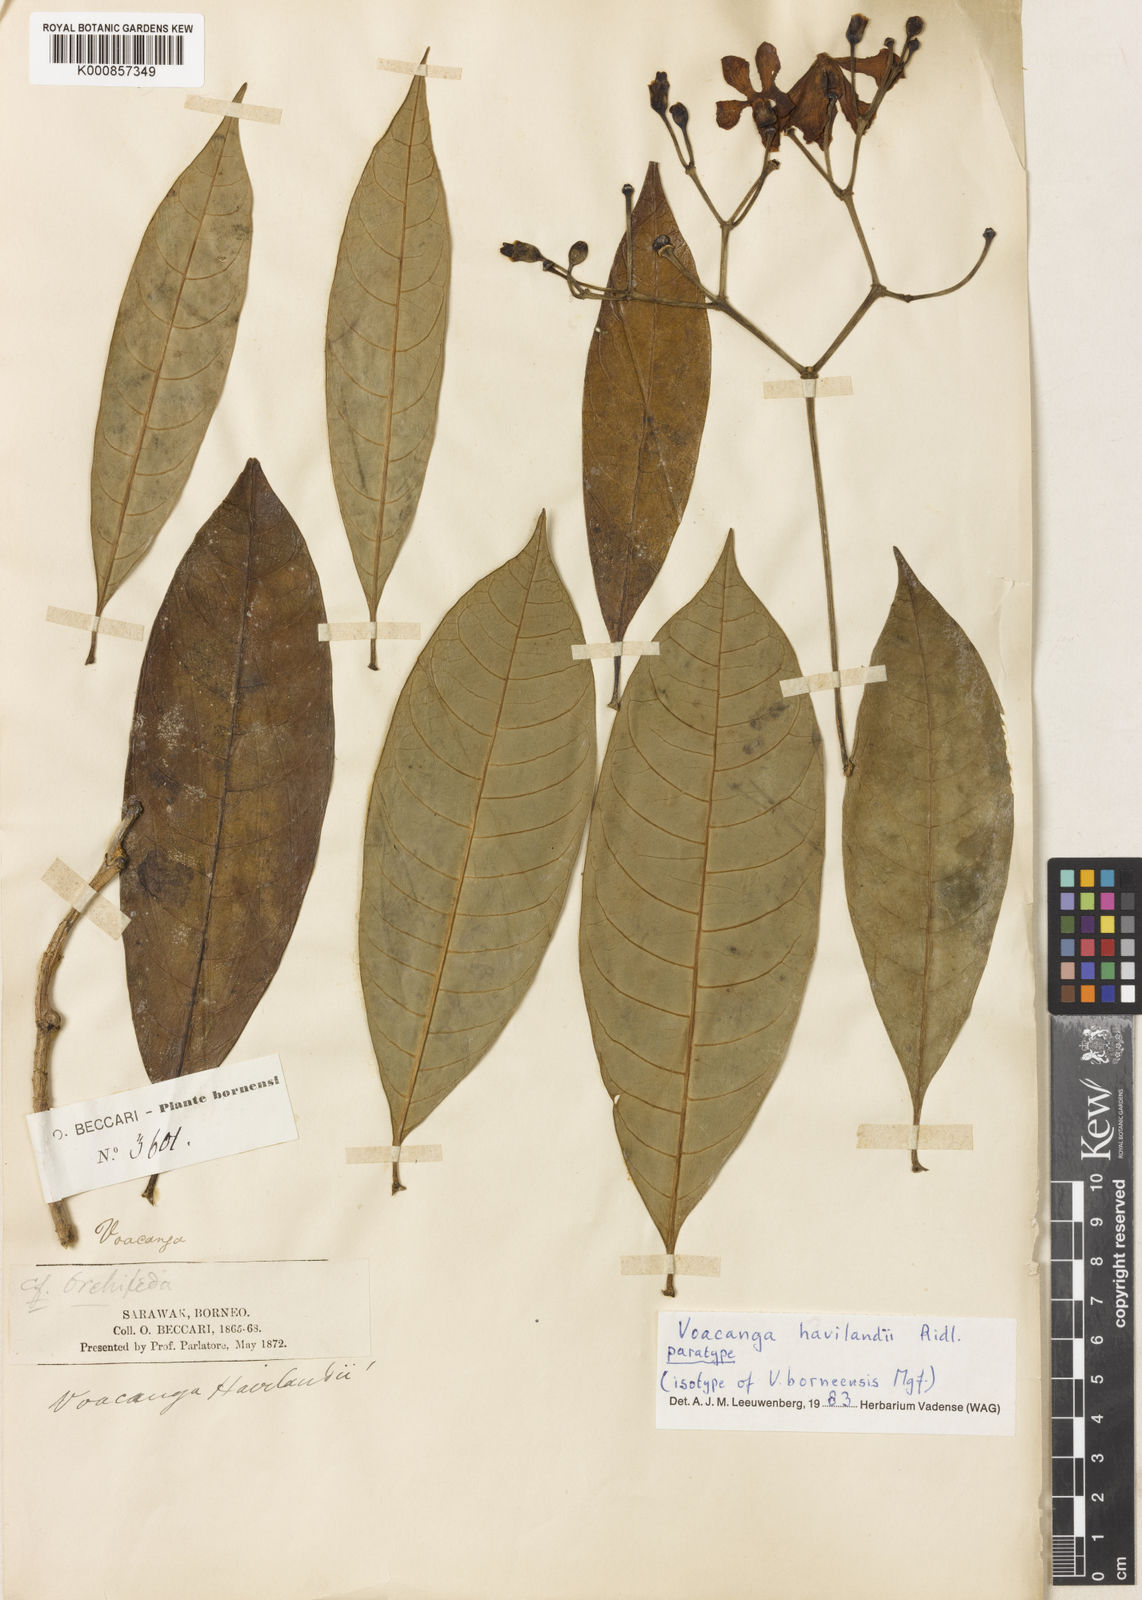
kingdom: Plantae
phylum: Tracheophyta
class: Magnoliopsida
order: Gentianales
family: Apocynaceae
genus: Voacanga
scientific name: Voacanga havilandii
